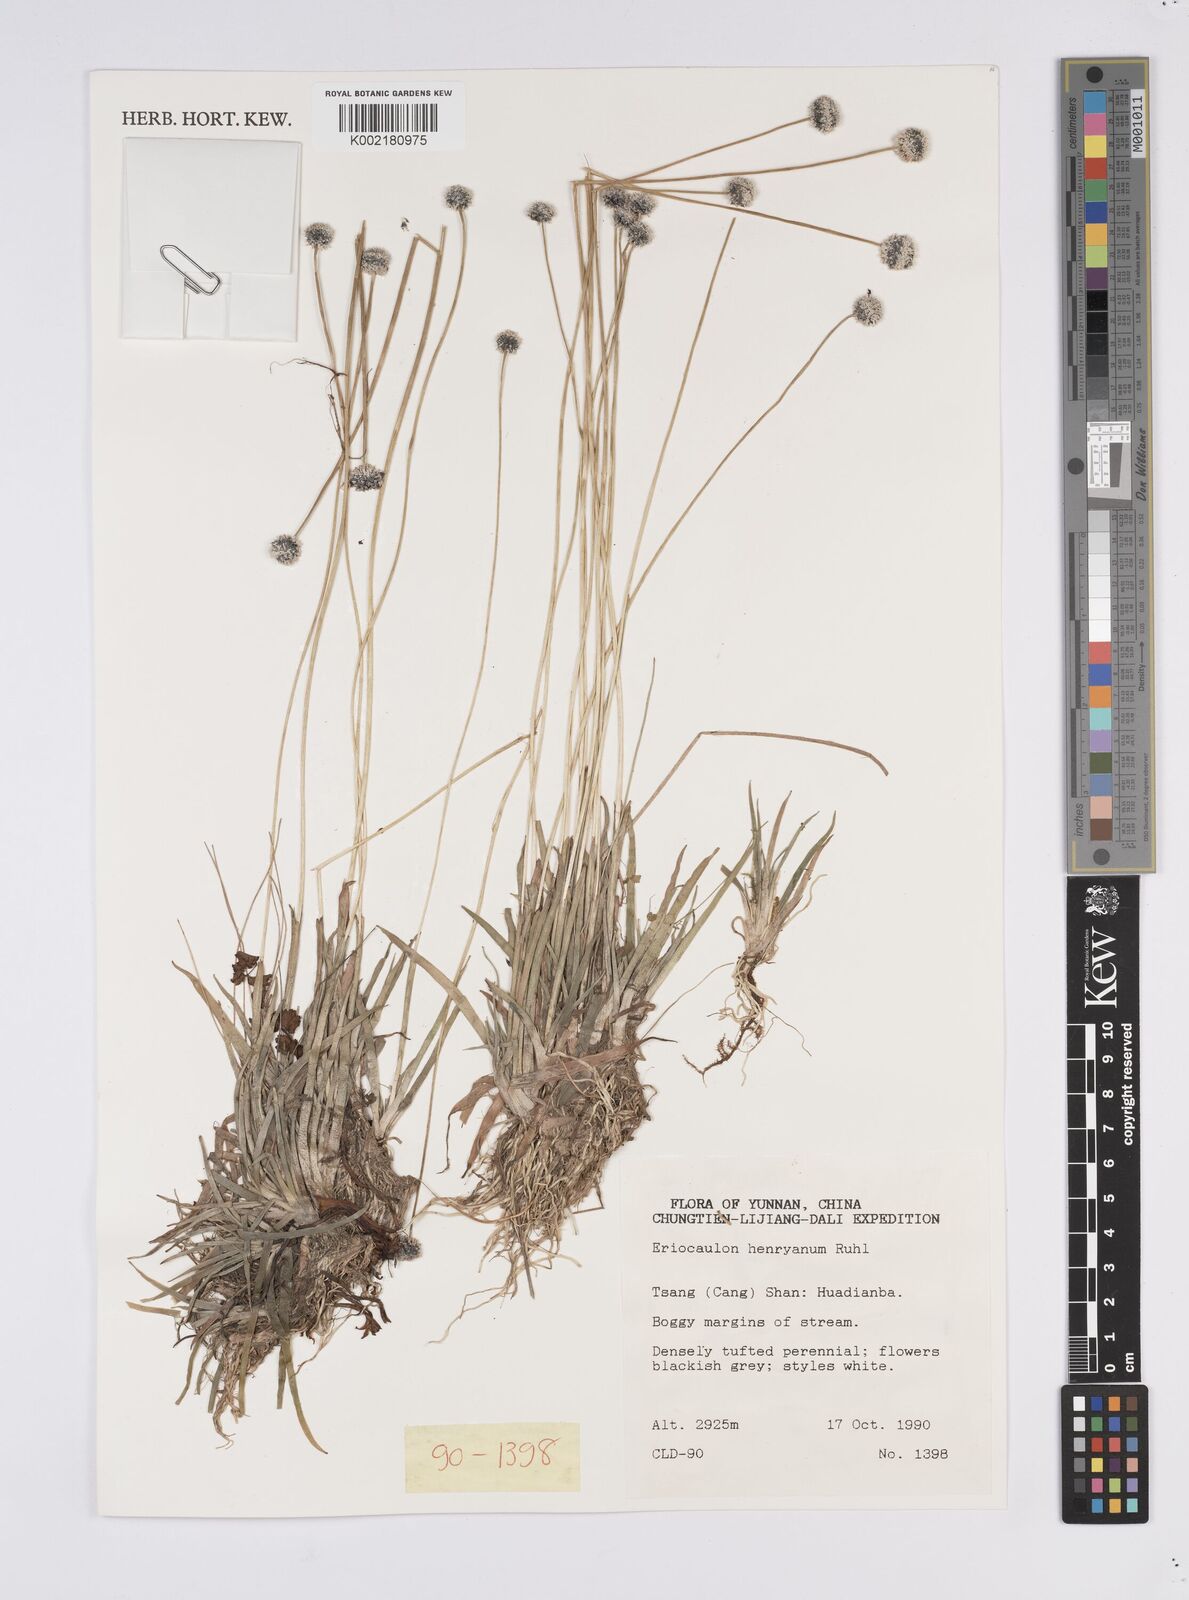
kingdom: Plantae
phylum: Tracheophyta
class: Liliopsida
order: Poales
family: Eriocaulaceae
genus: Eriocaulon
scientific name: Eriocaulon henryanum
